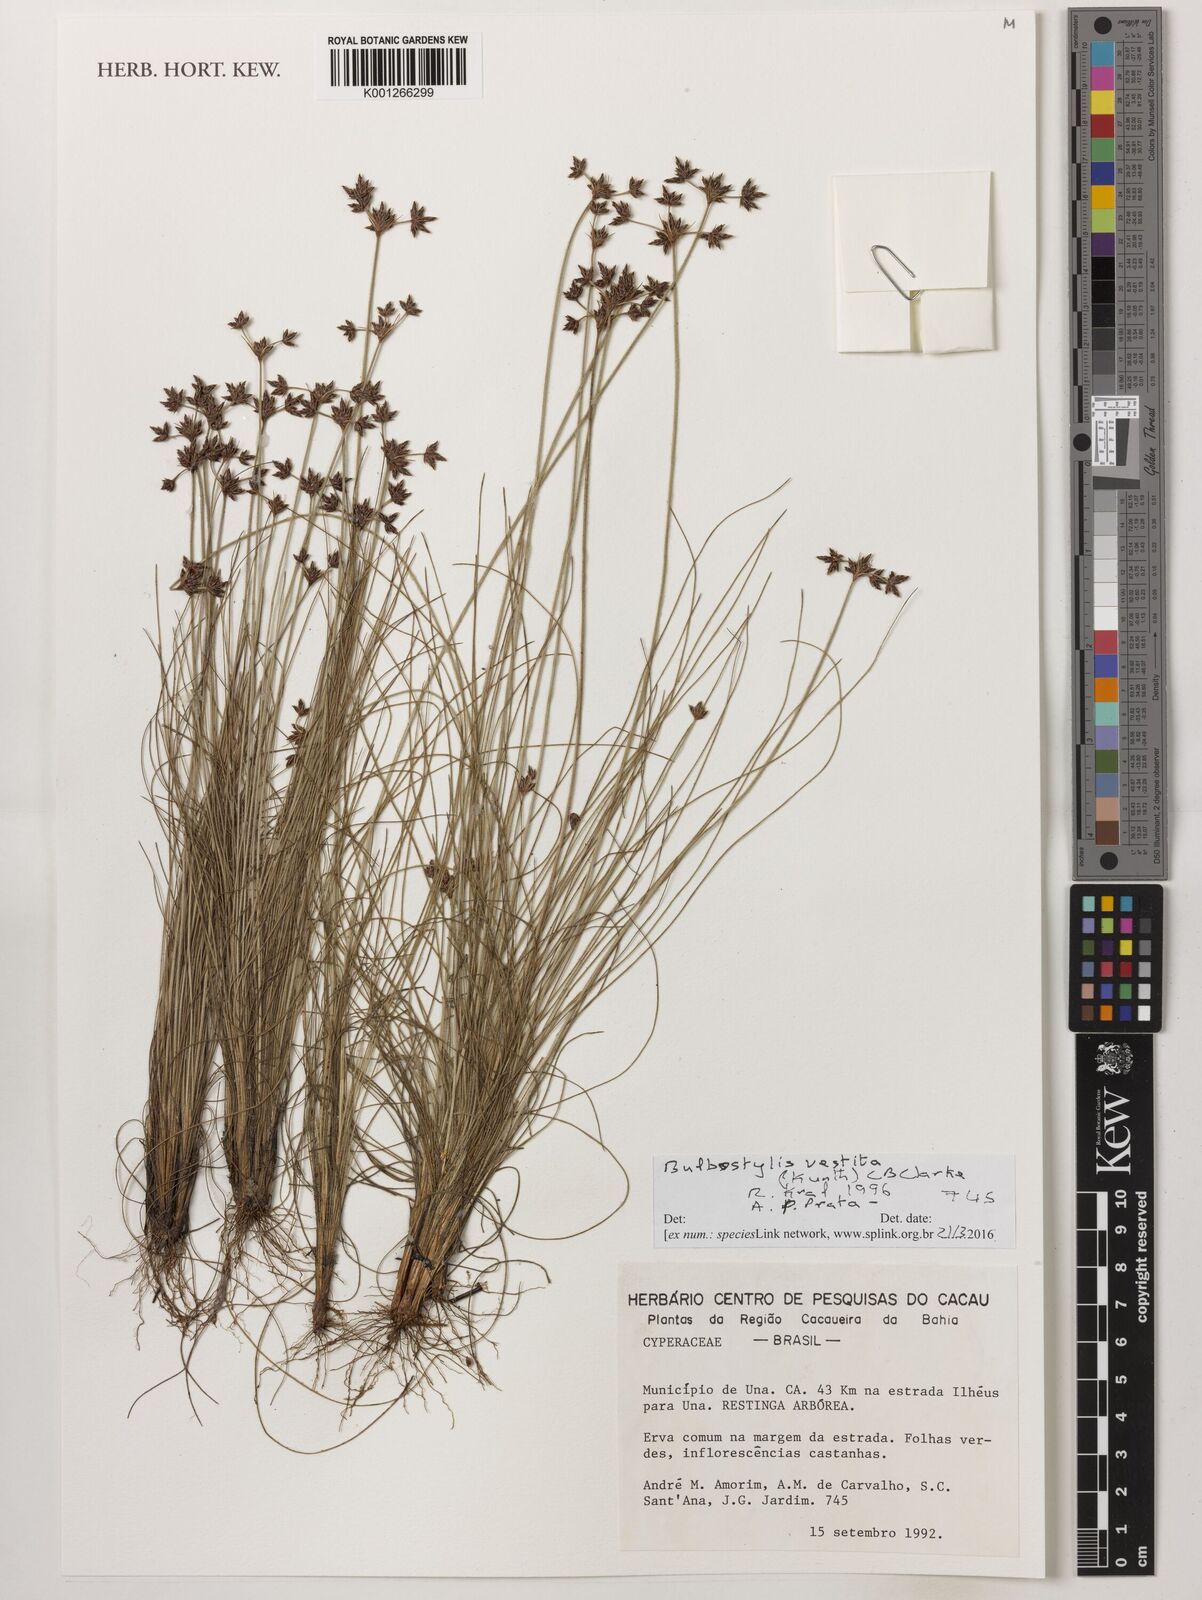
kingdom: Plantae
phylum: Tracheophyta
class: Liliopsida
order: Poales
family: Cyperaceae
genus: Bulbostylis
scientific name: Bulbostylis vestita
